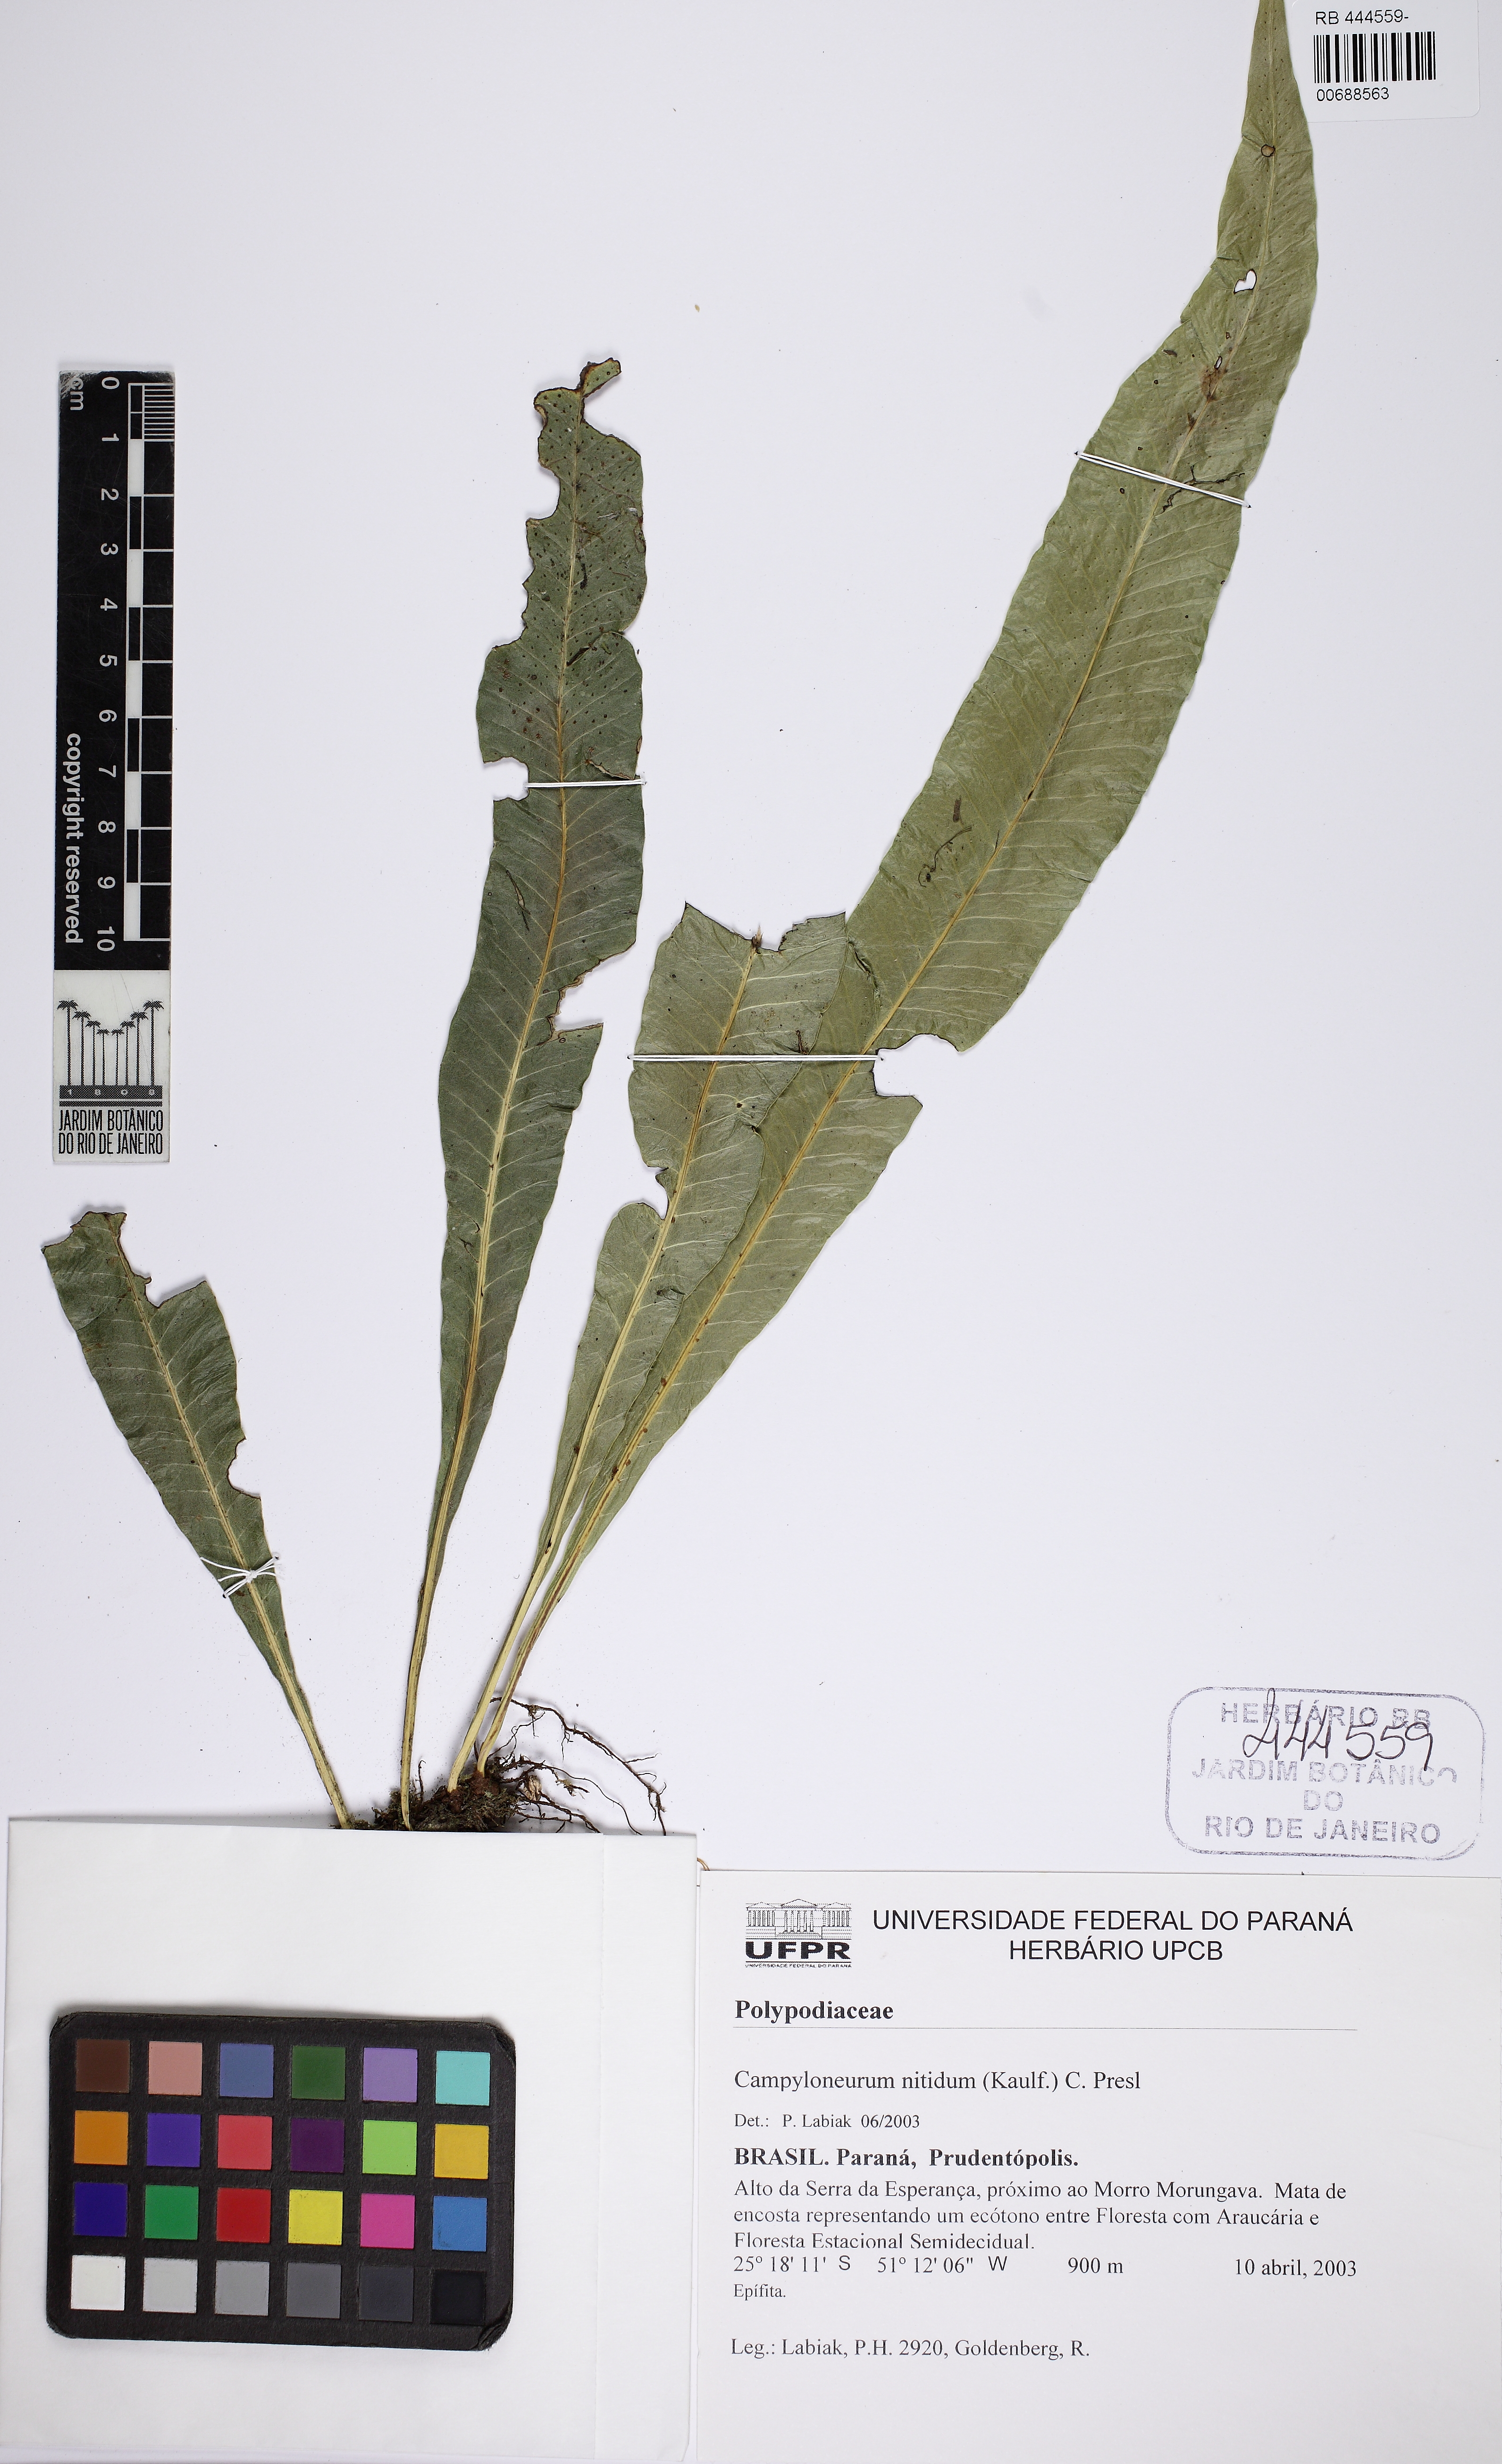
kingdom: Plantae
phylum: Tracheophyta
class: Polypodiopsida
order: Polypodiales
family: Polypodiaceae
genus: Campyloneurum
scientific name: Campyloneurum nitidum
